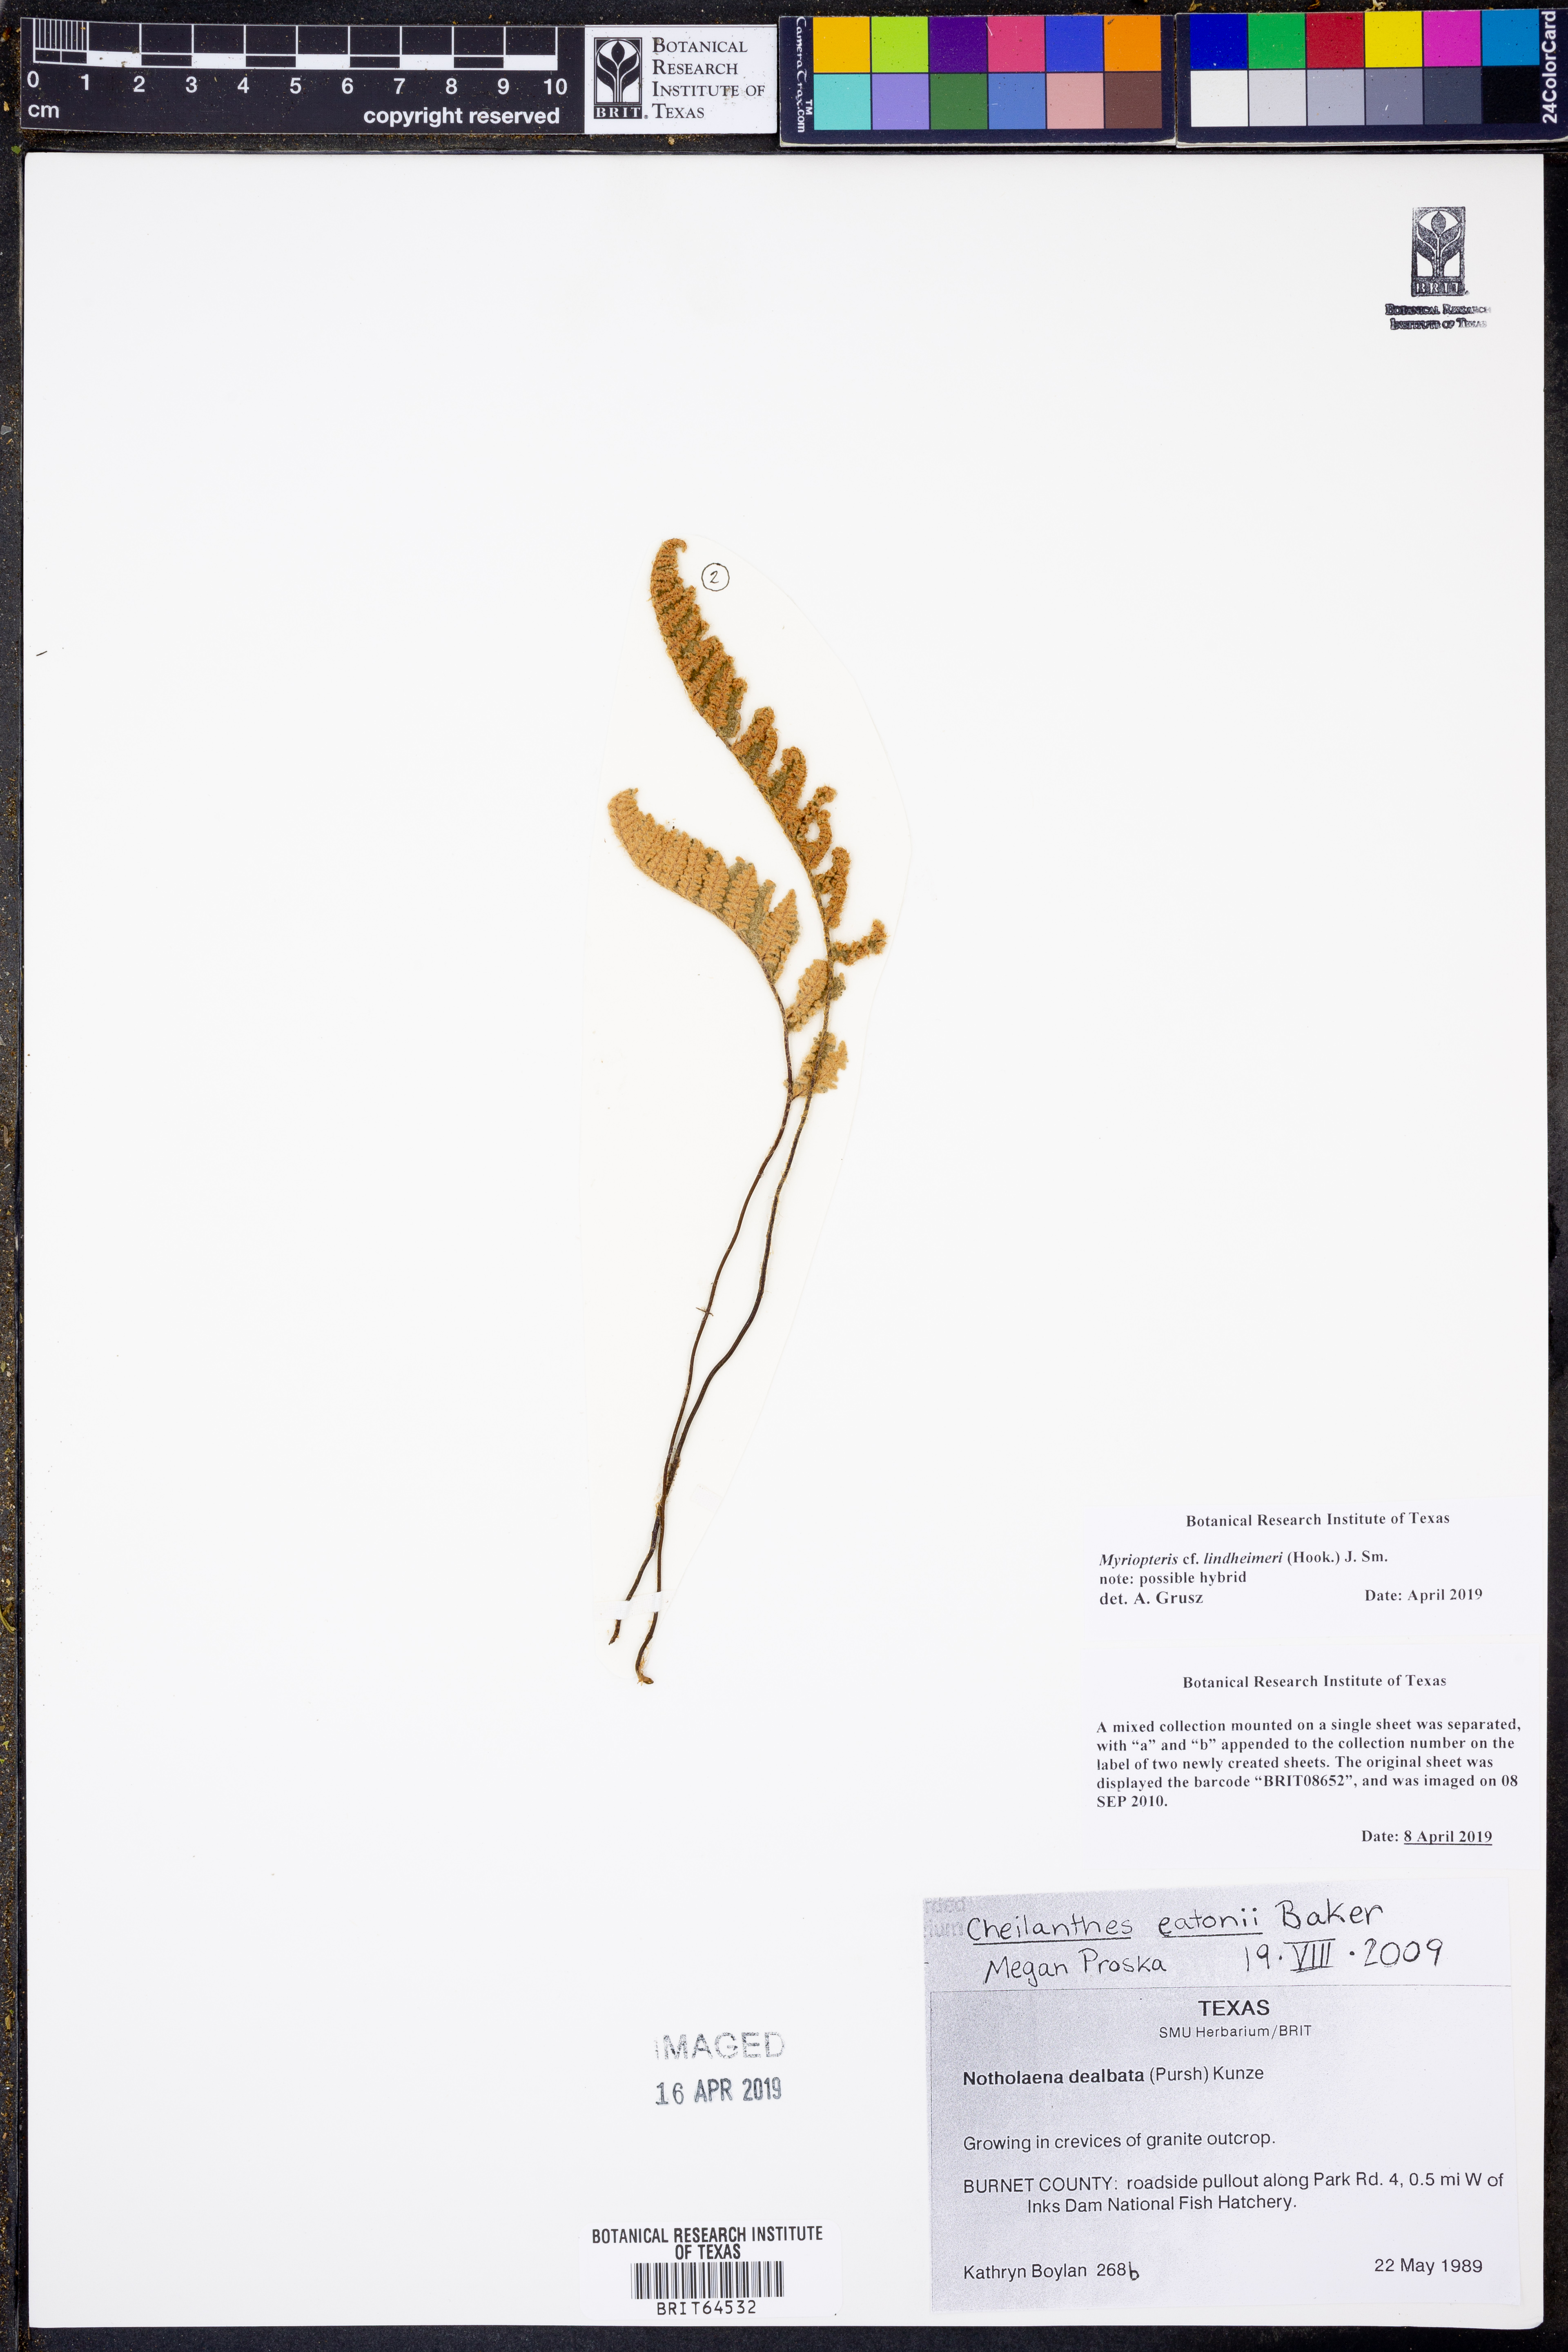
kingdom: Plantae
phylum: Tracheophyta
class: Polypodiopsida
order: Polypodiales
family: Pteridaceae
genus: Myriopteris
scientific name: Myriopteris lindheimeri
